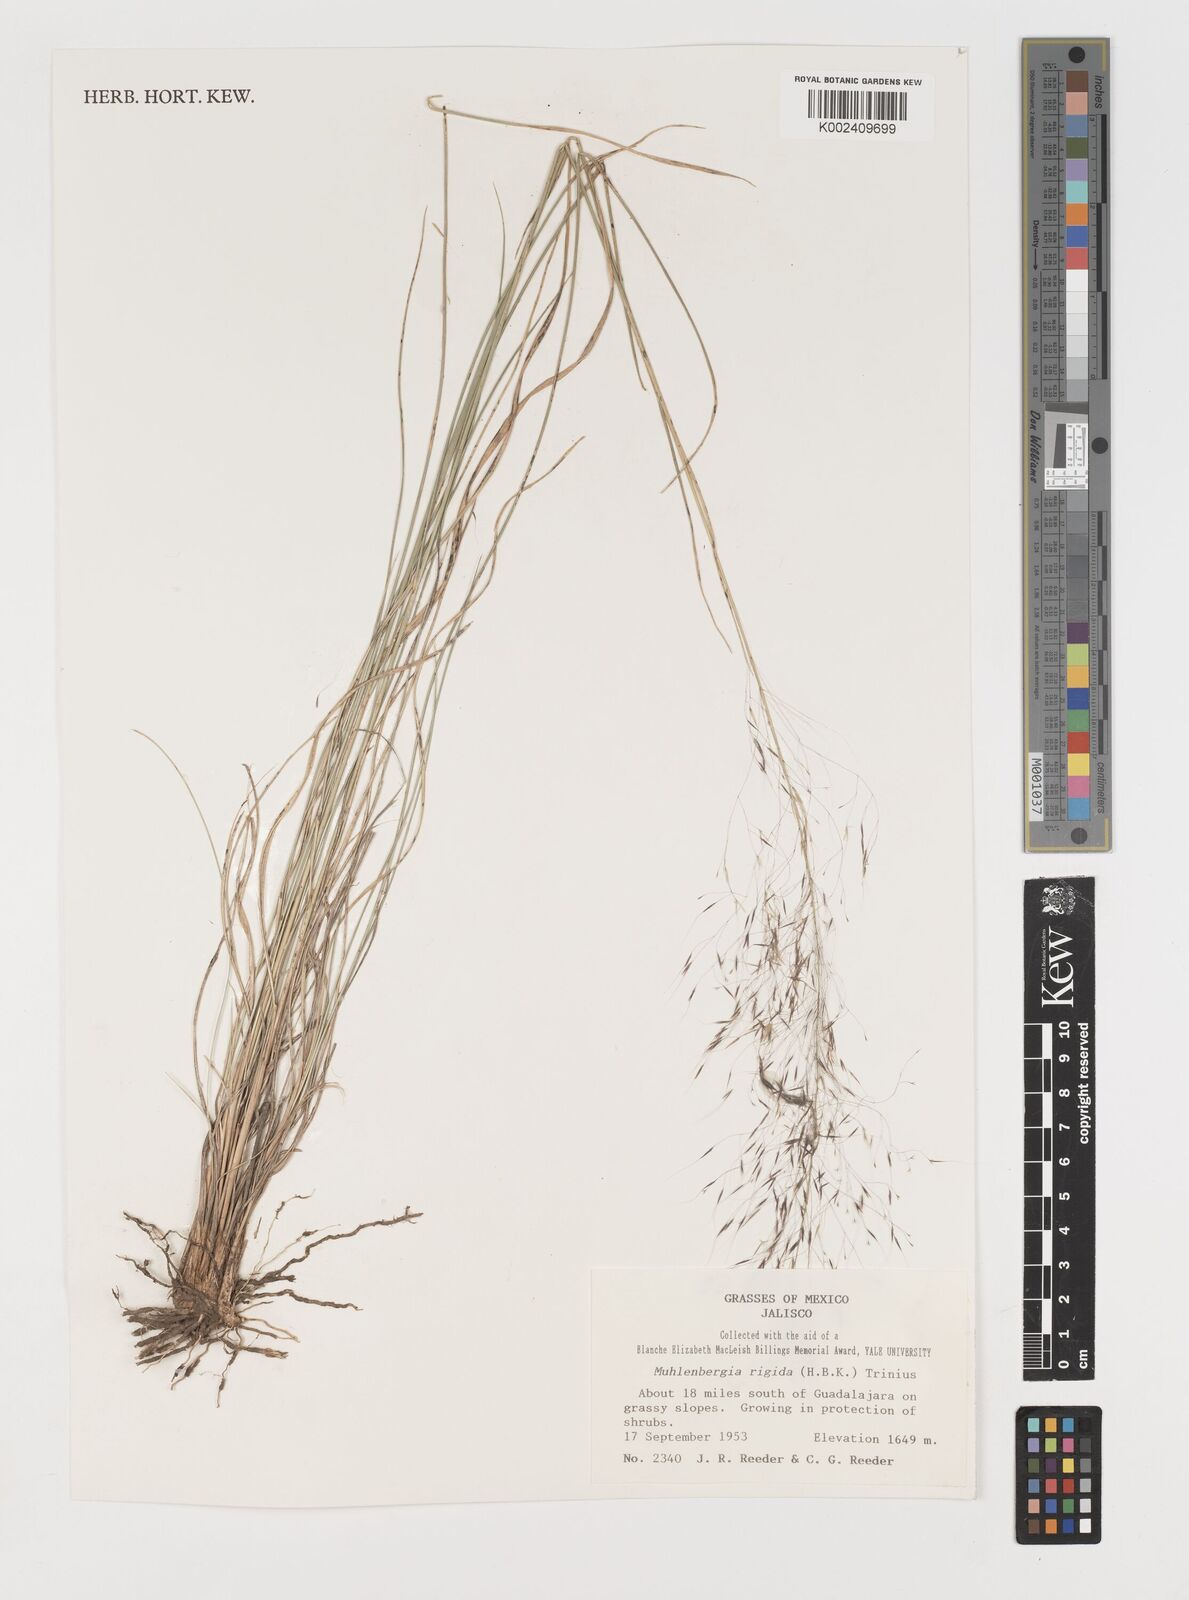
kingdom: Plantae
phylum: Tracheophyta
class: Liliopsida
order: Poales
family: Poaceae
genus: Muhlenbergia
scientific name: Muhlenbergia rigida
